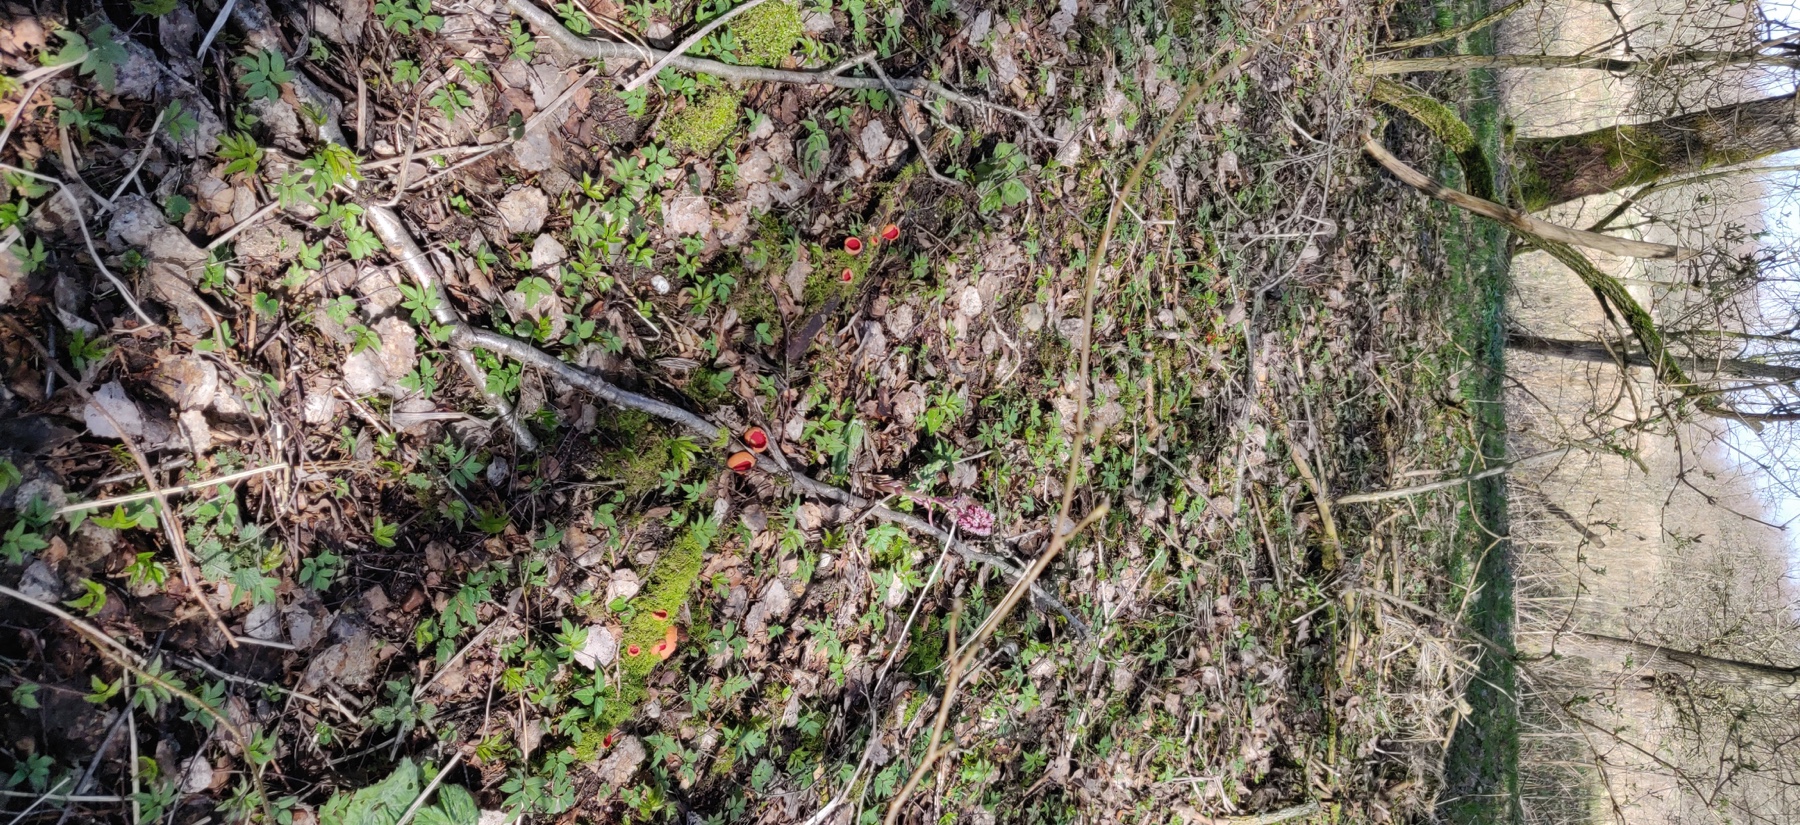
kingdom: Fungi
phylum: Ascomycota
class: Pezizomycetes
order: Pezizales
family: Sarcoscyphaceae
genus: Sarcoscypha
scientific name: Sarcoscypha austriaca
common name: krølhåret pragtbæger
